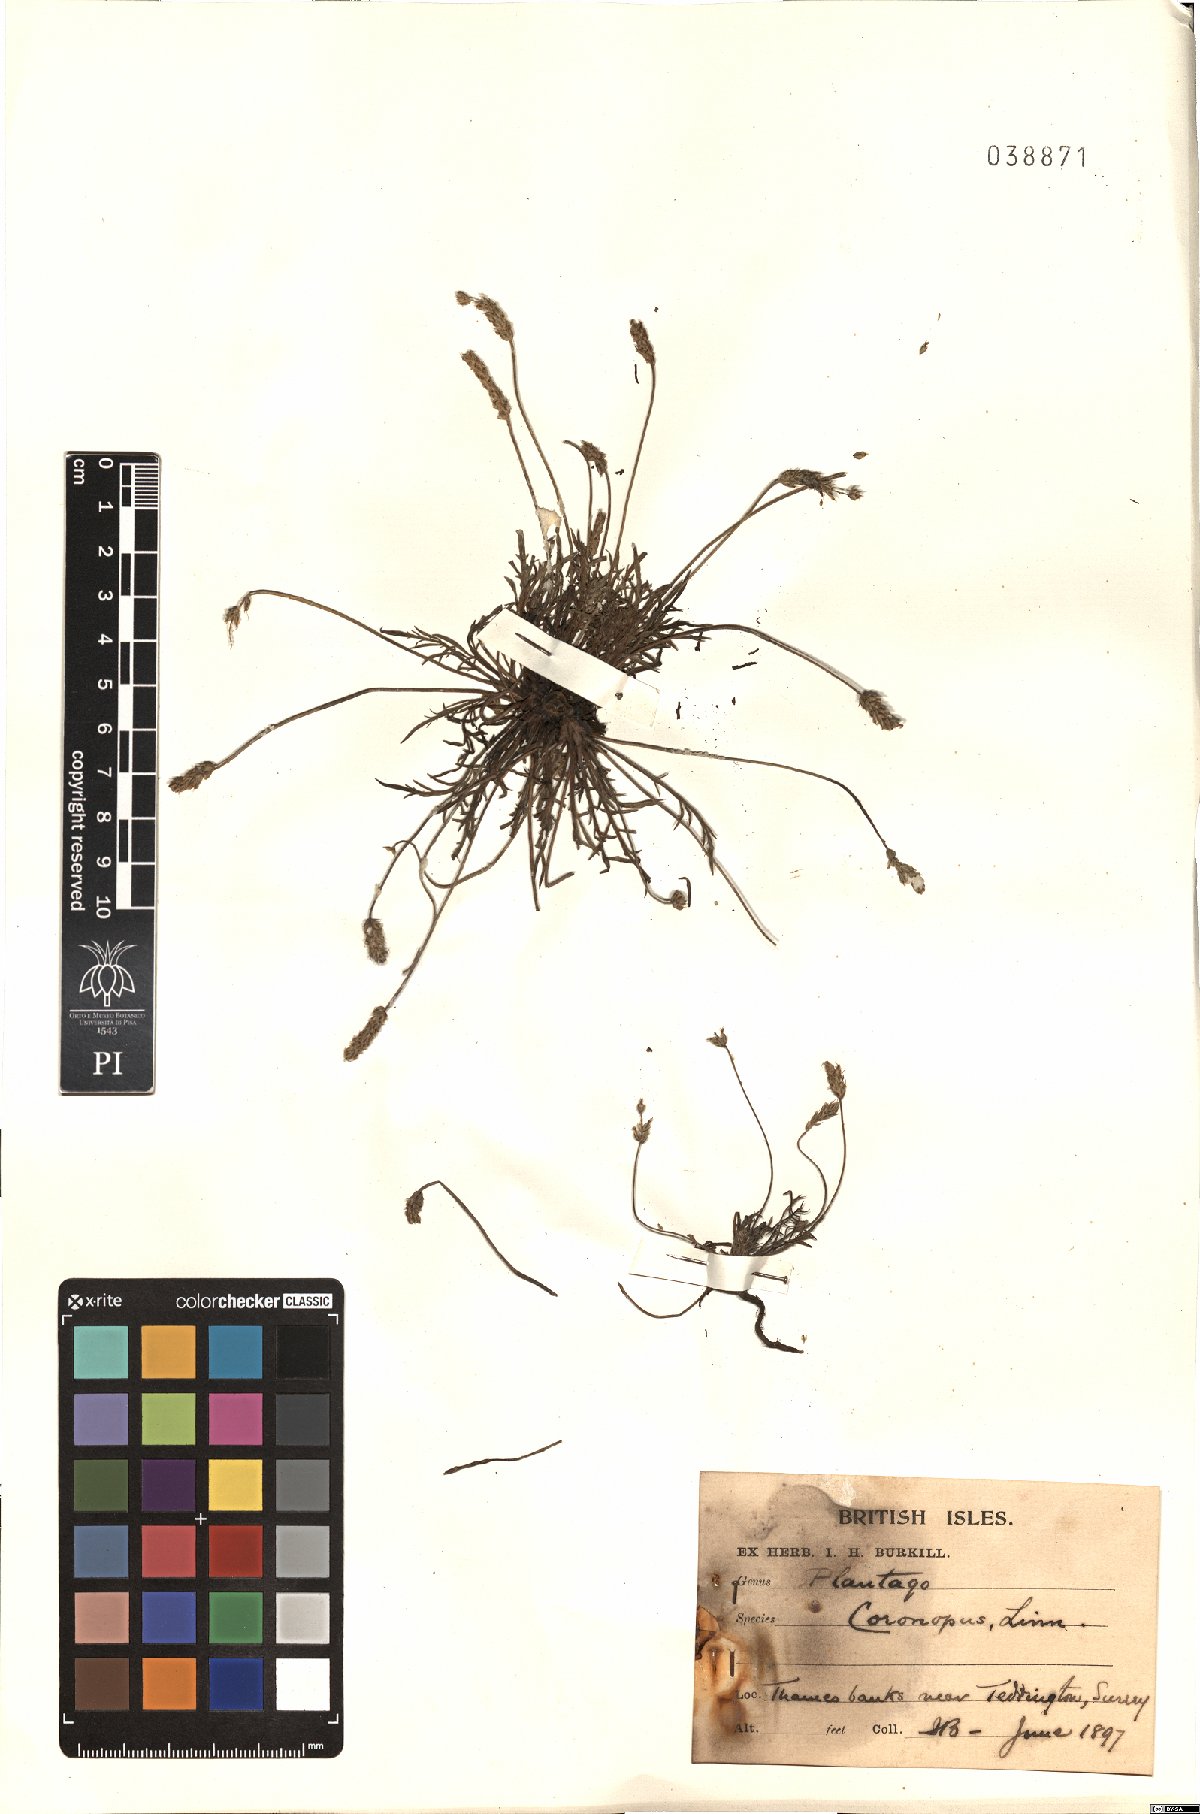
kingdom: Plantae
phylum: Tracheophyta
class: Magnoliopsida
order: Lamiales
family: Plantaginaceae
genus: Plantago
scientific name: Plantago coronopus
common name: Buck's-horn plantain
